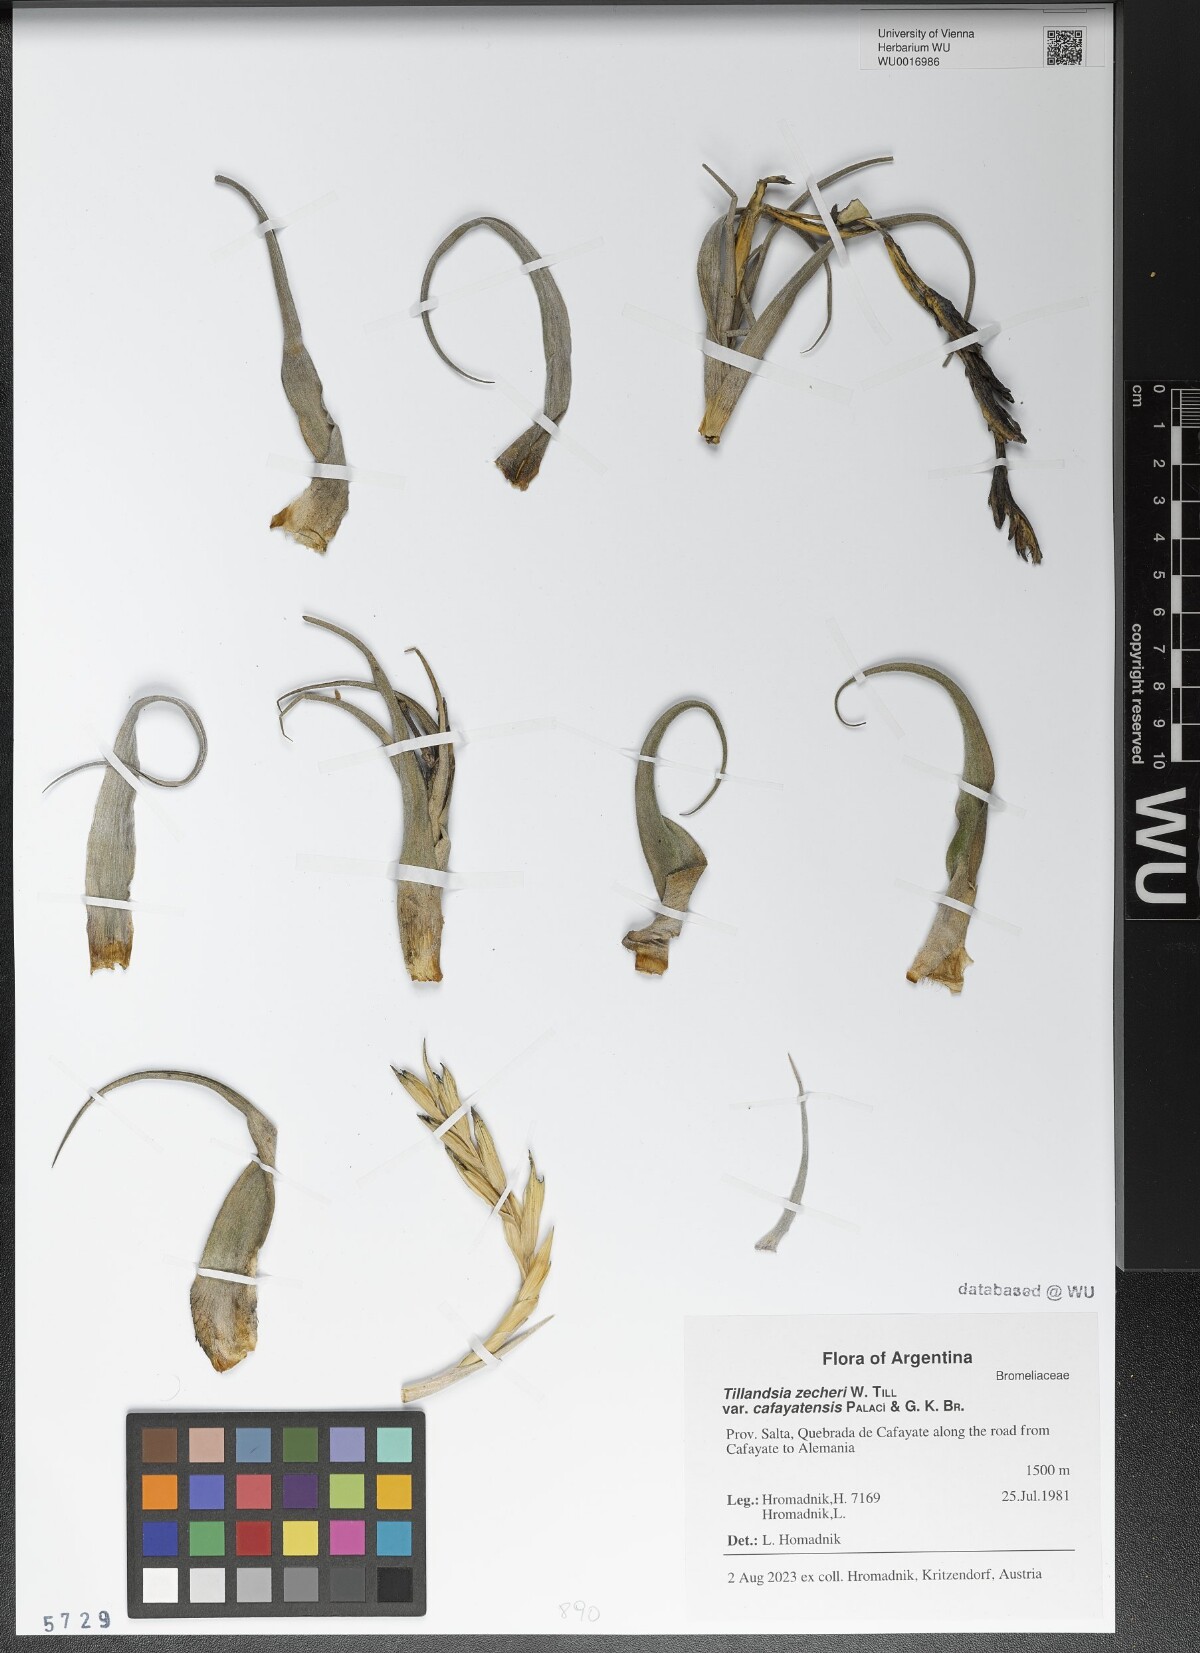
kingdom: Plantae
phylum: Tracheophyta
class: Liliopsida
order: Poales
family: Bromeliaceae
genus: Tillandsia
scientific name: Tillandsia zecheri
